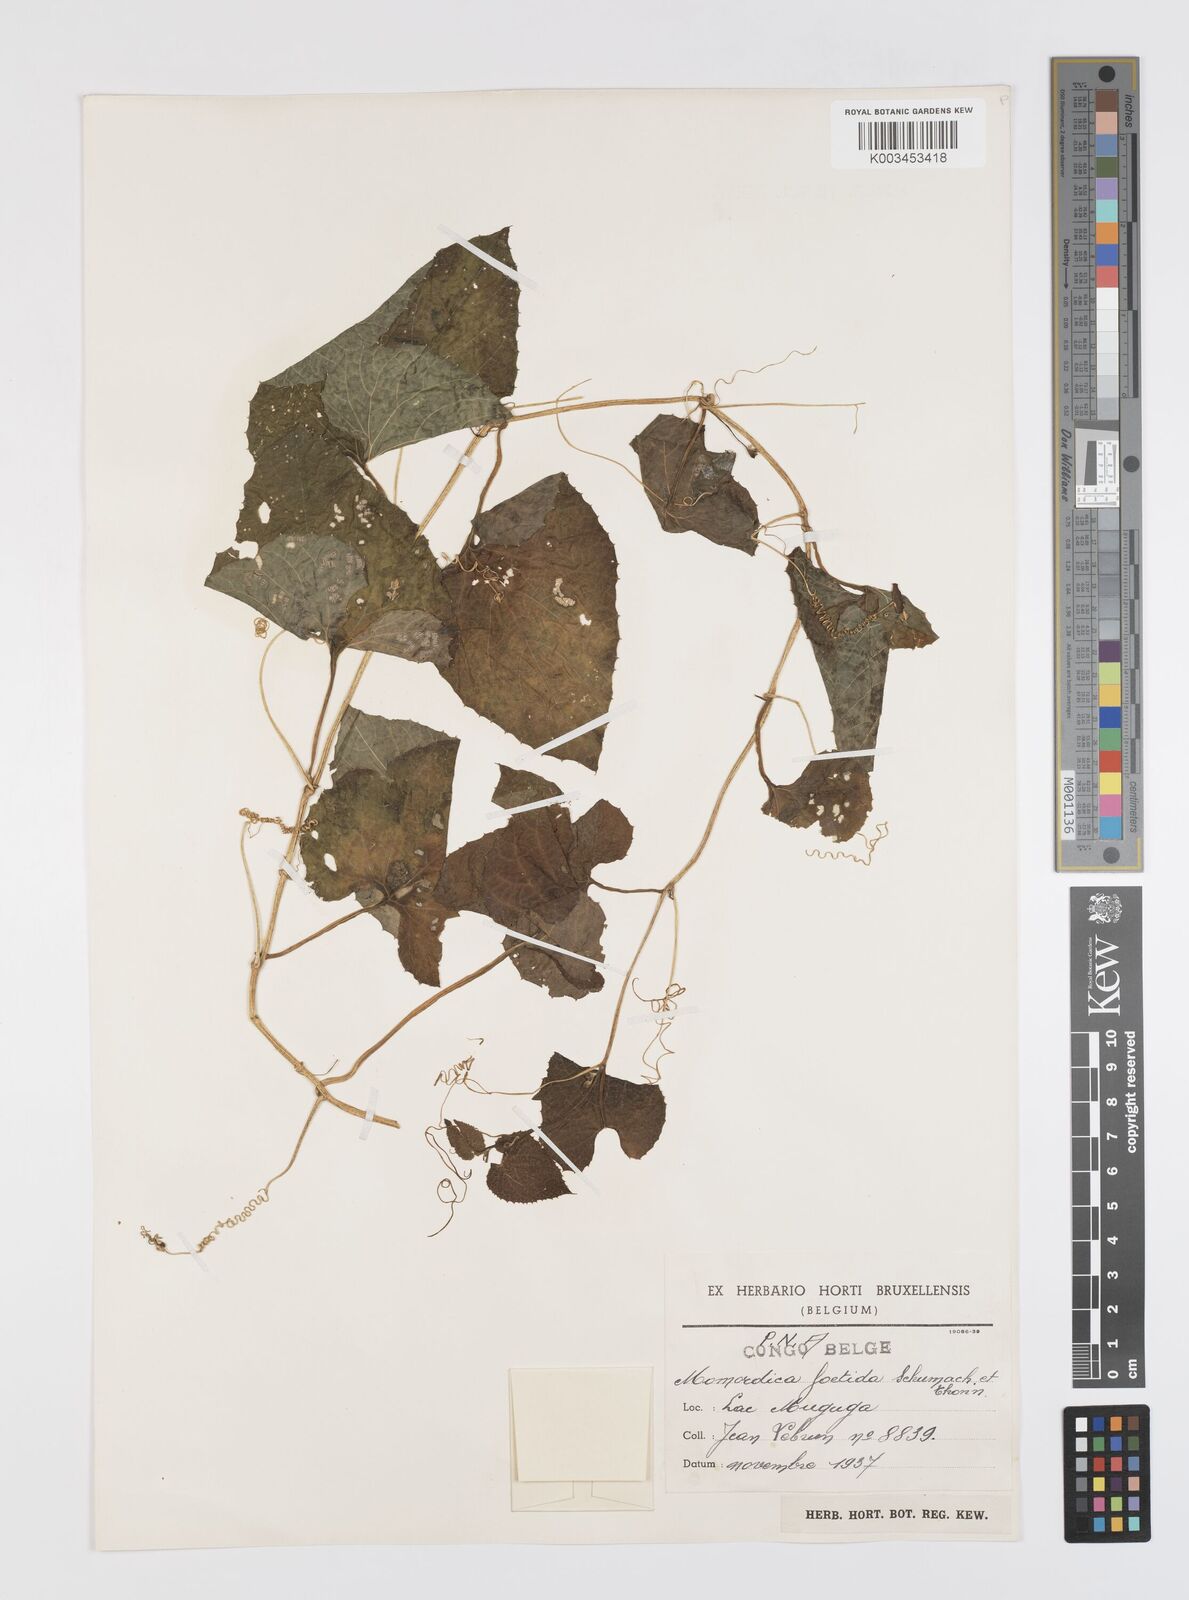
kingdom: Plantae
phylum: Tracheophyta
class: Magnoliopsida
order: Cucurbitales
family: Cucurbitaceae
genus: Momordica
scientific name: Momordica foetida
